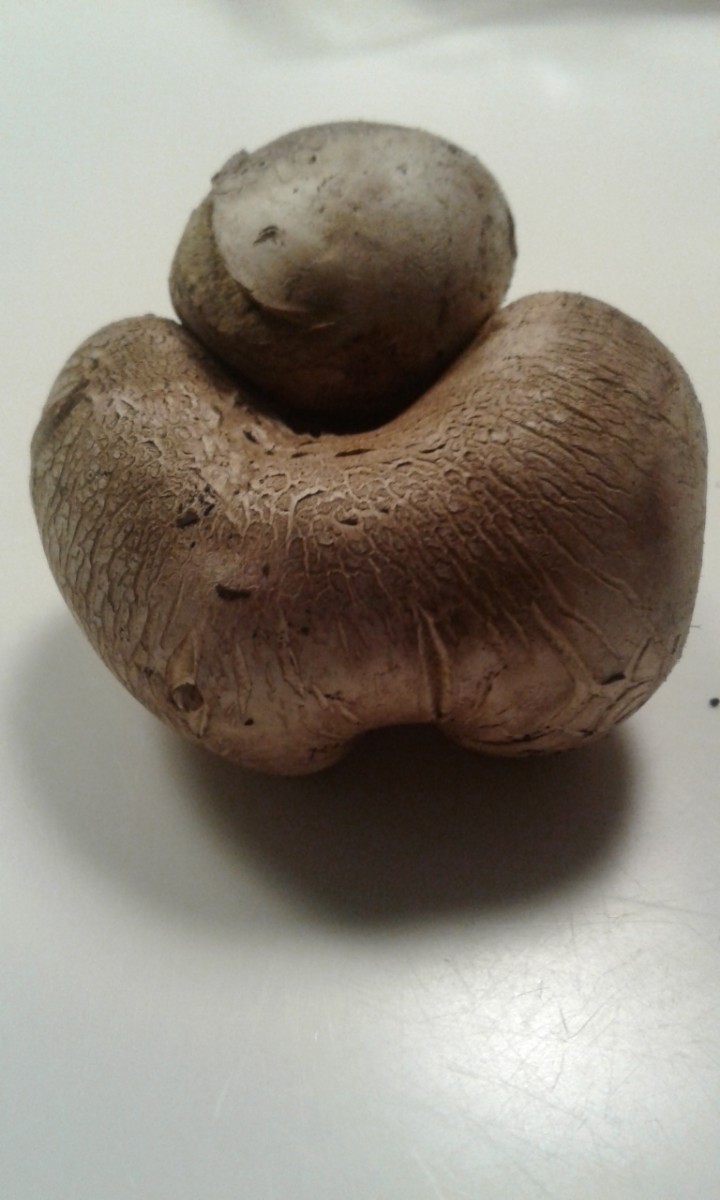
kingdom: Fungi
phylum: Basidiomycota
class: Agaricomycetes
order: Boletales
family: Sclerodermataceae
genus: Scleroderma
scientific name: Scleroderma bovista
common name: bovist-bruskbold
